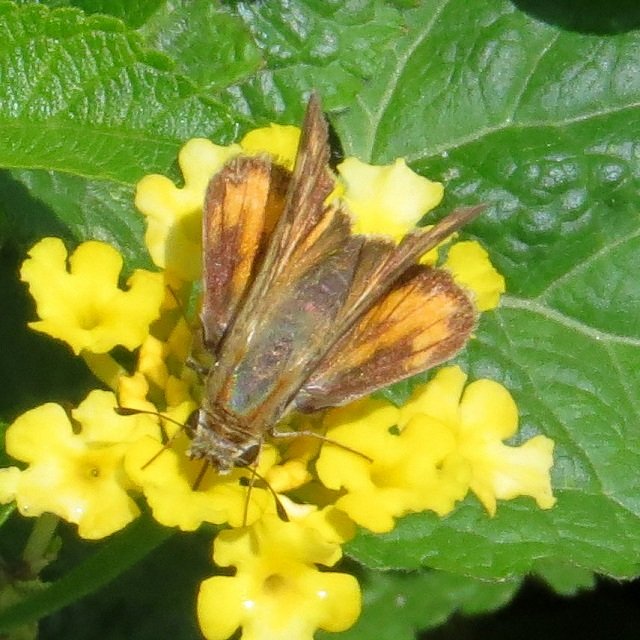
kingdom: Animalia
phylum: Arthropoda
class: Insecta
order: Lepidoptera
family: Hesperiidae
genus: Hylephila
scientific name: Hylephila phyleus
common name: Fiery Skipper
